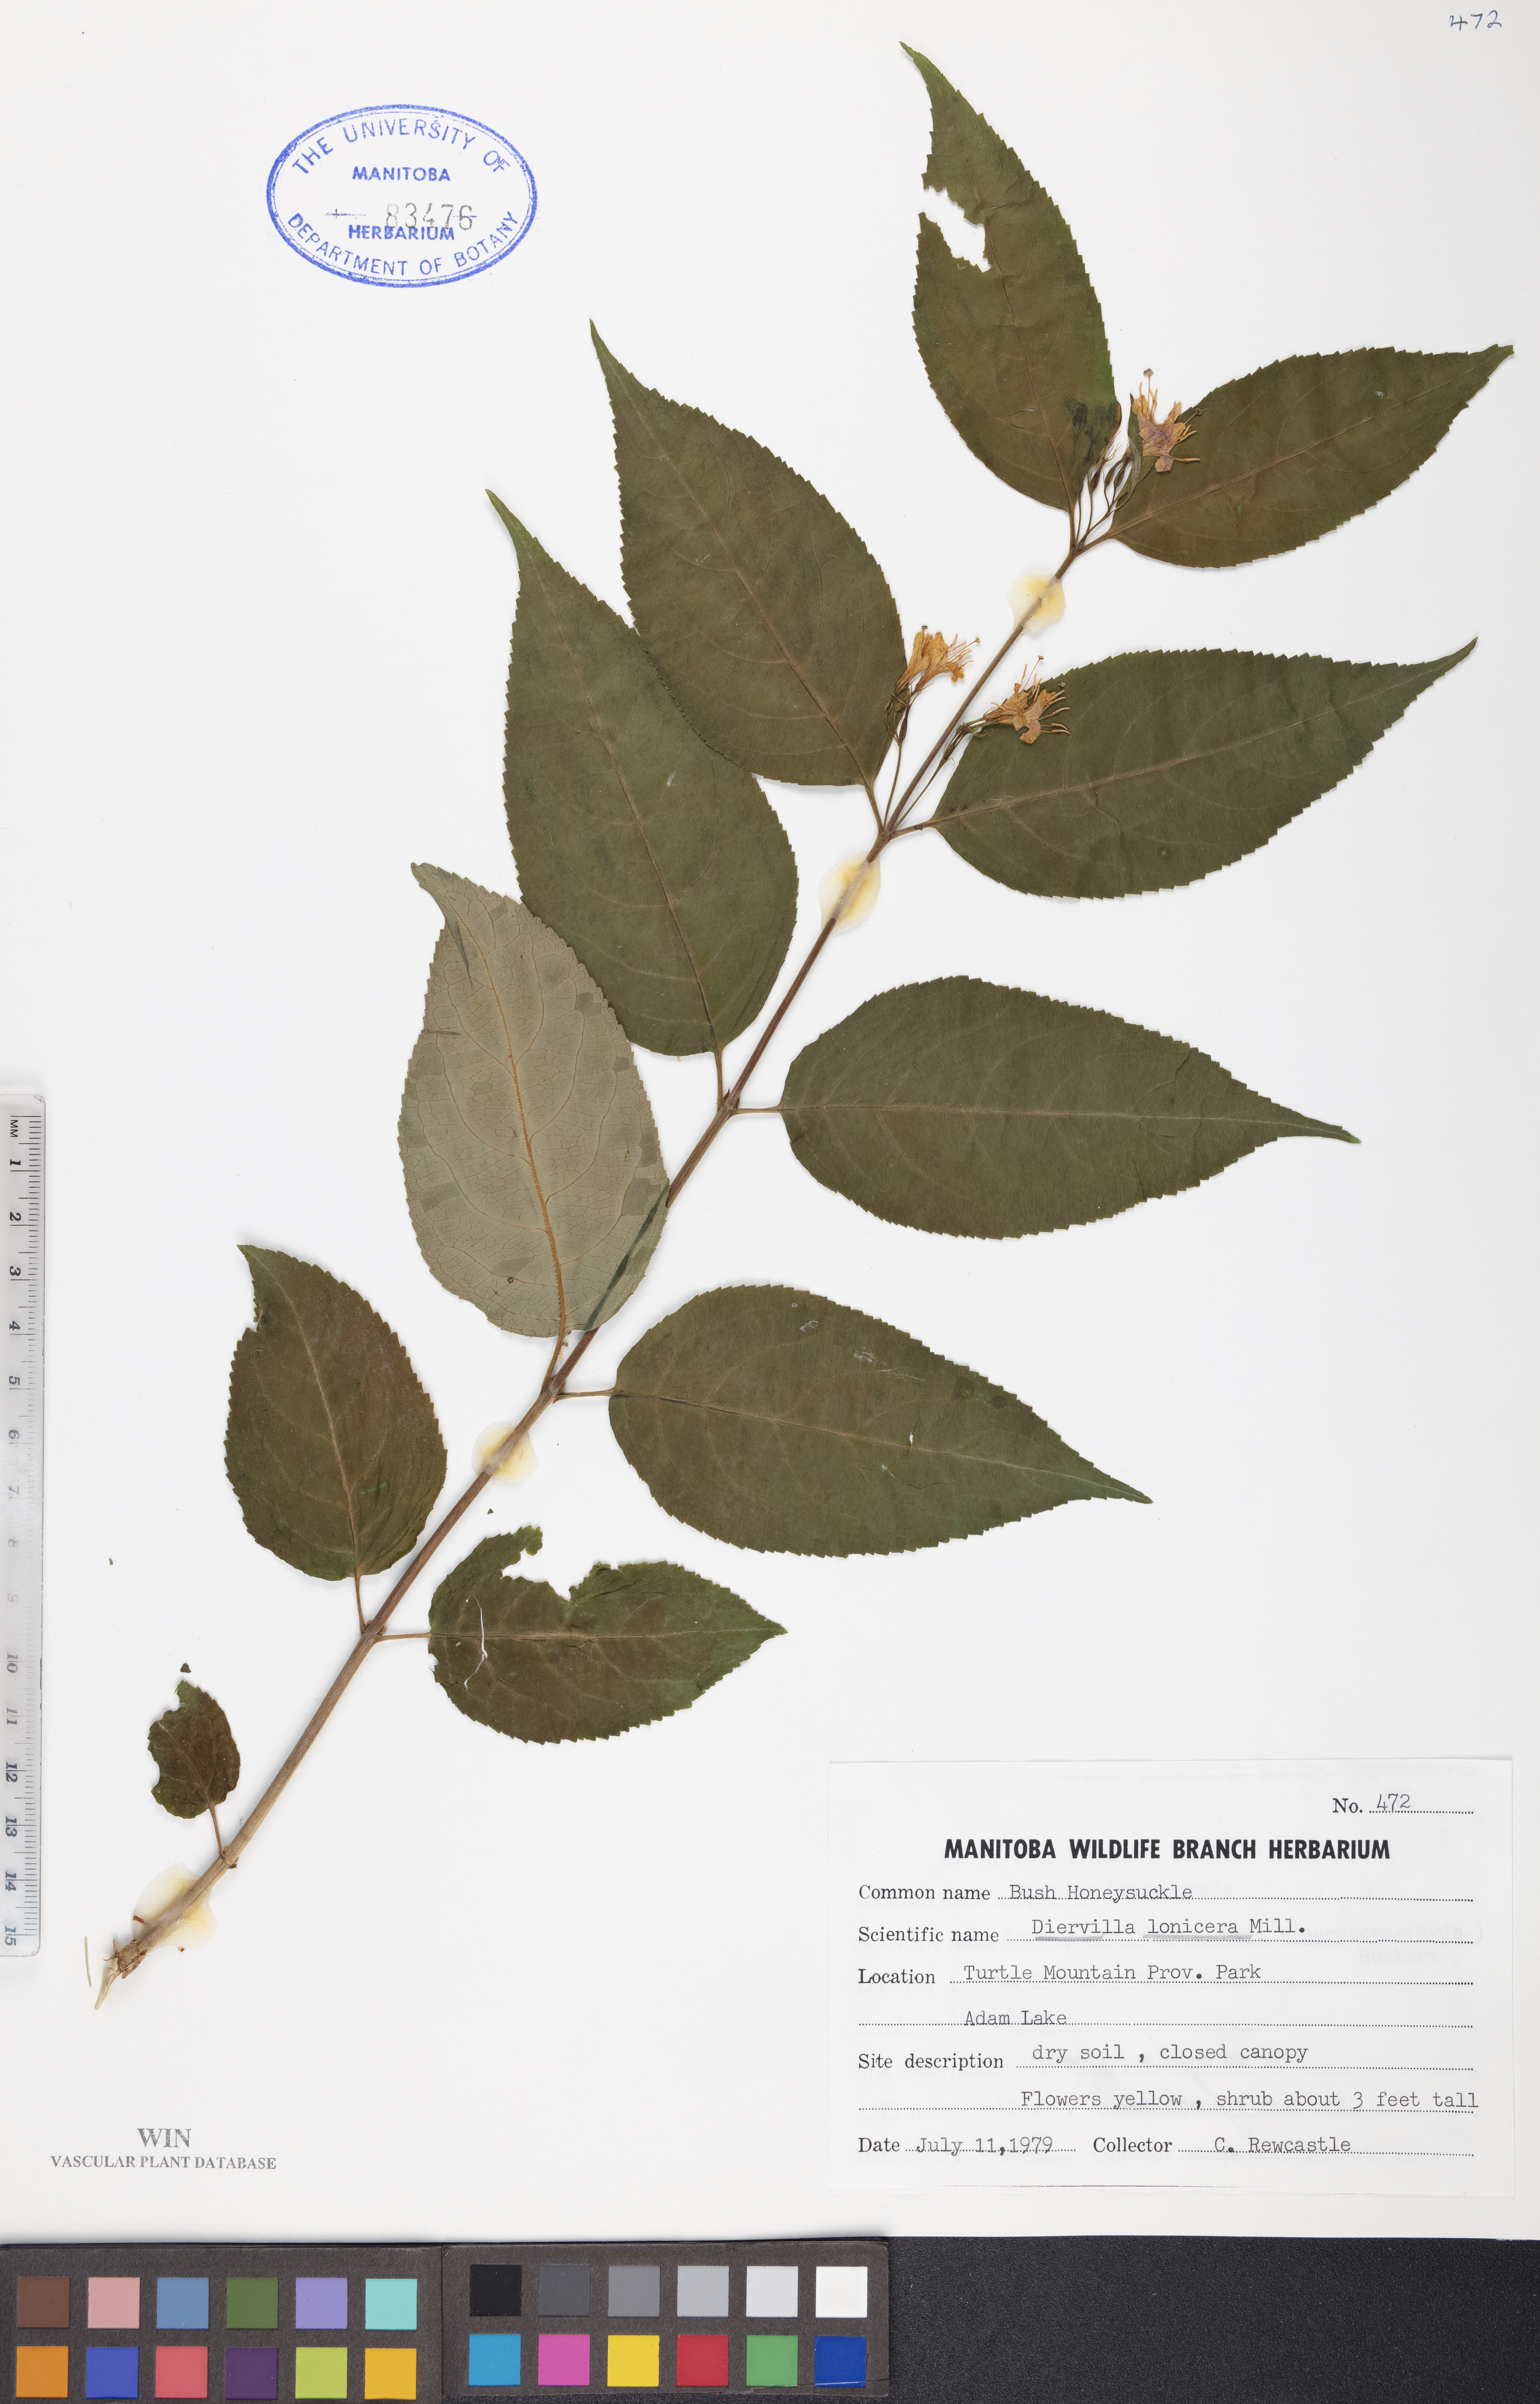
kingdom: Plantae
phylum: Tracheophyta
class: Magnoliopsida
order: Dipsacales
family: Caprifoliaceae
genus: Diervilla
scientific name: Diervilla lonicera
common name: Bush-honeysuckle
